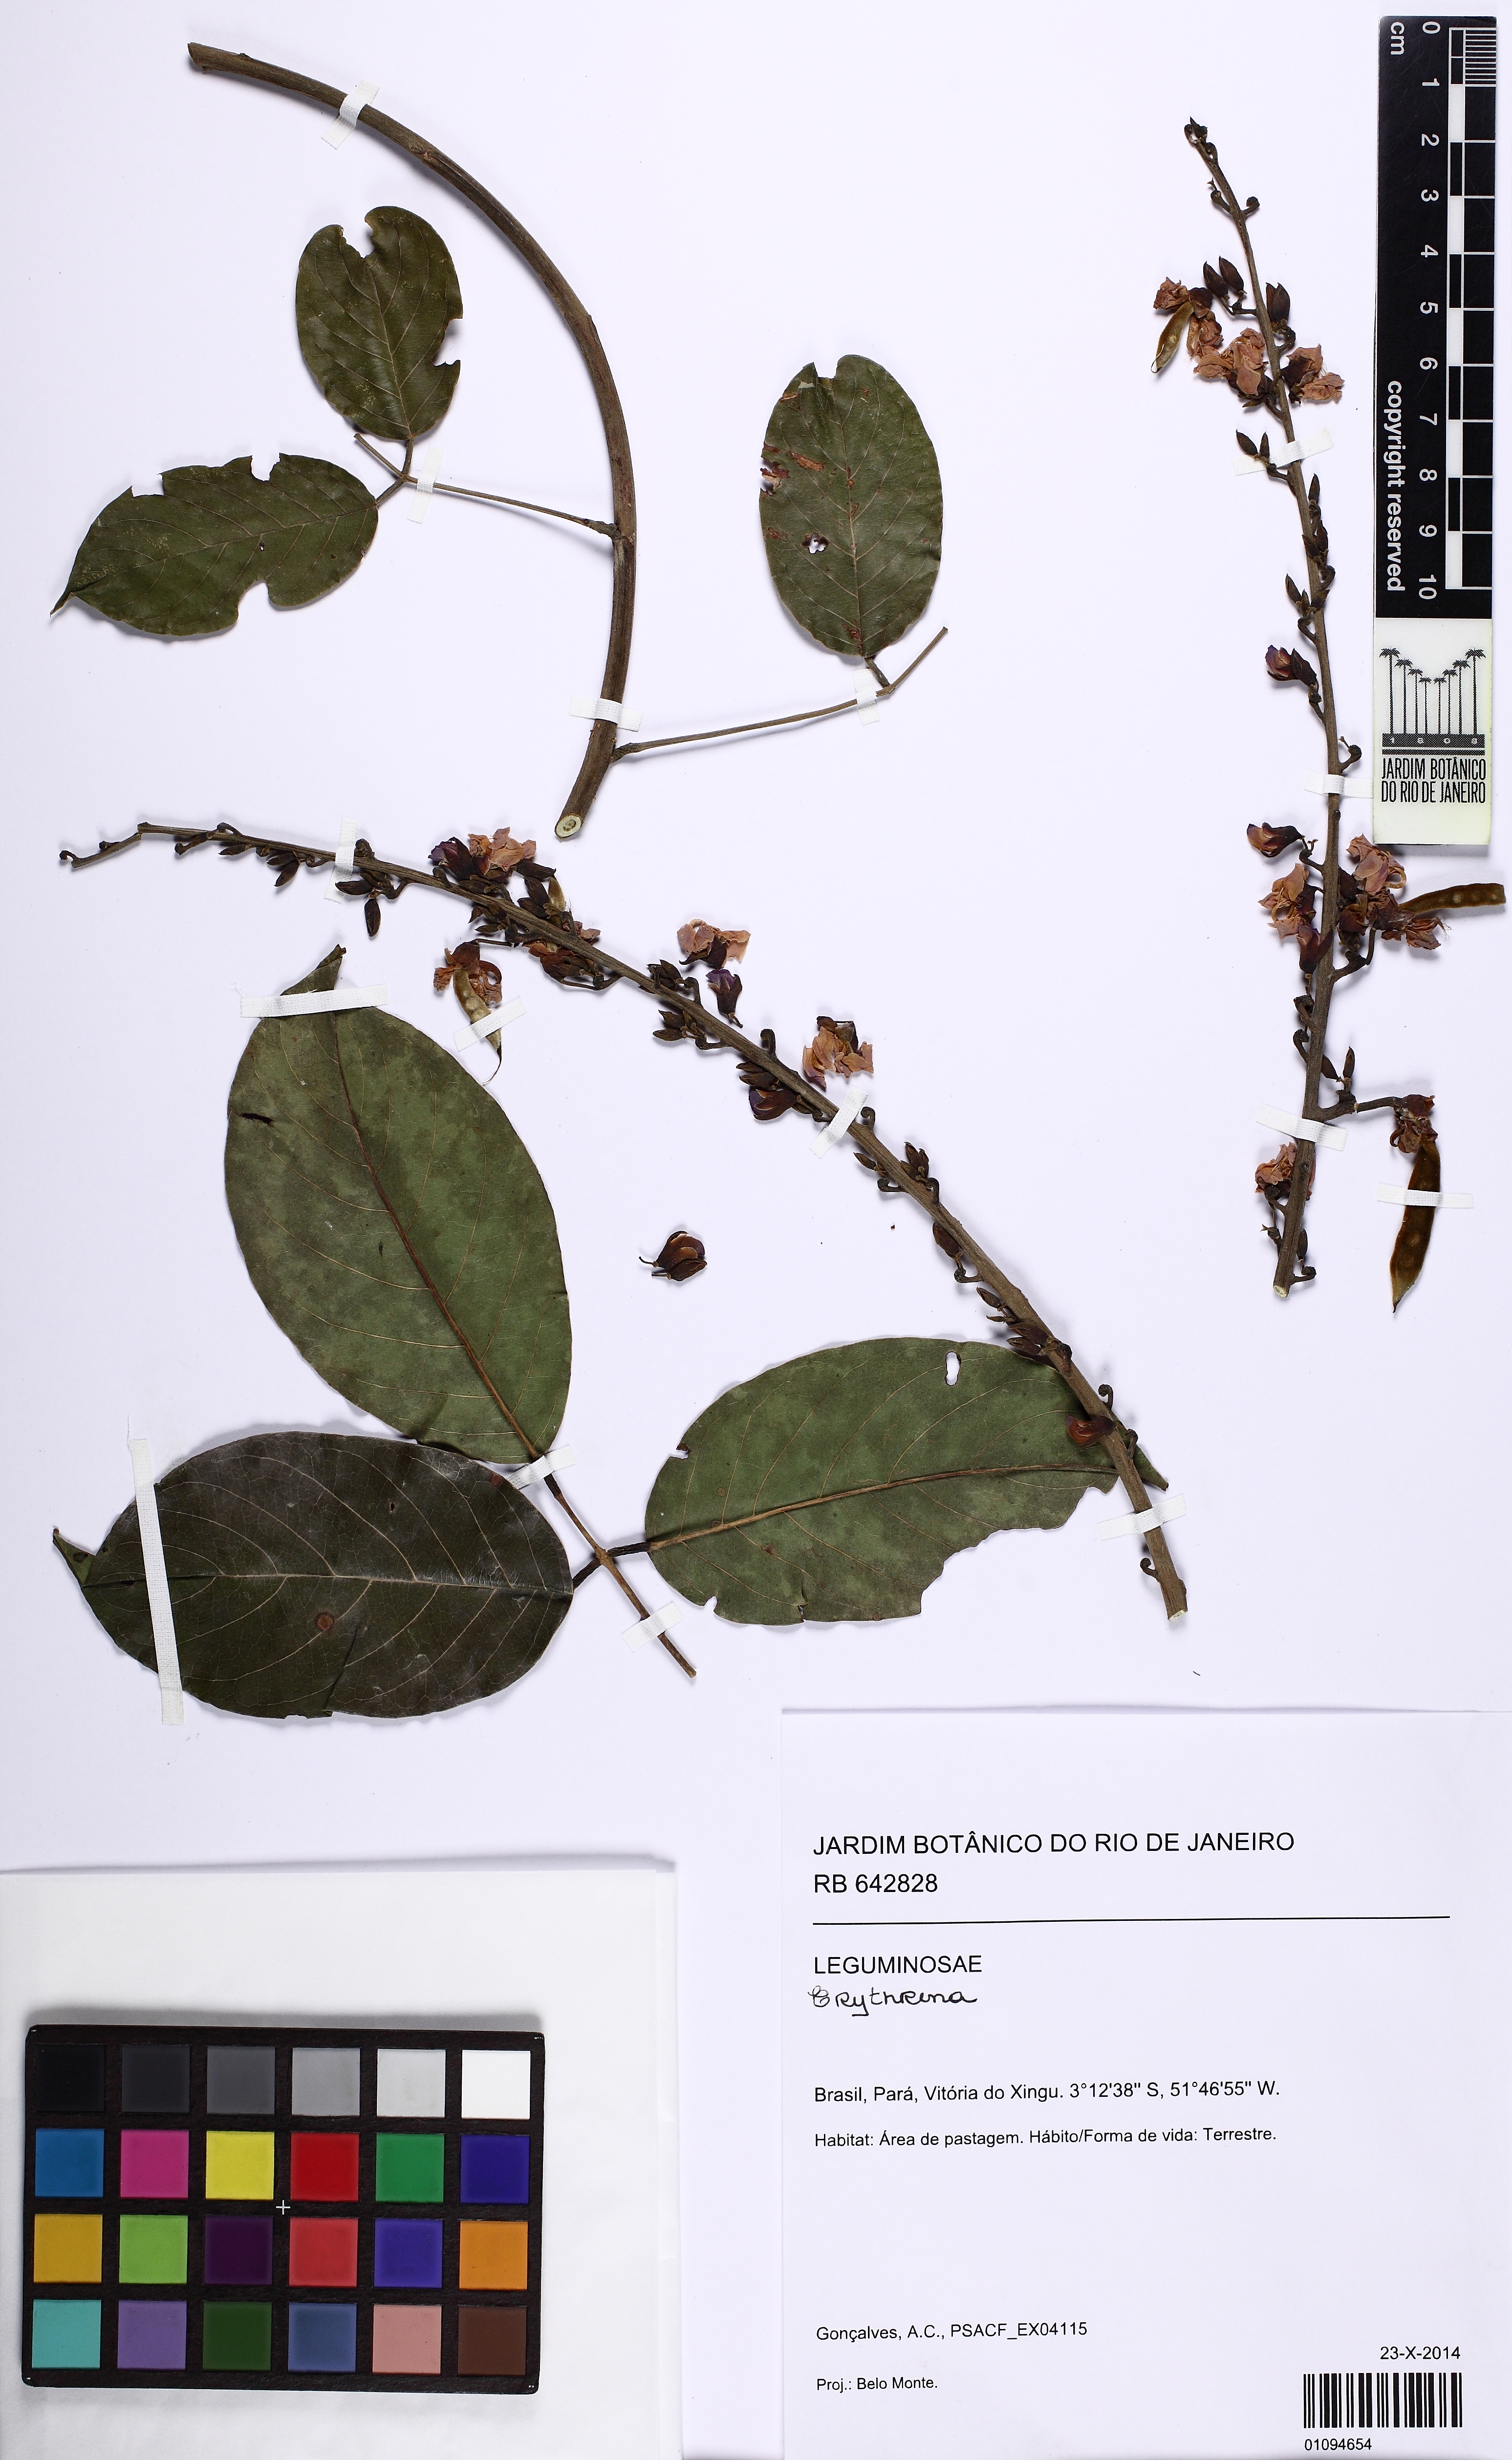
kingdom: Plantae
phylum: Tracheophyta
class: Magnoliopsida
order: Fabales
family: Fabaceae
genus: Macropsychanthus
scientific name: Macropsychanthus
